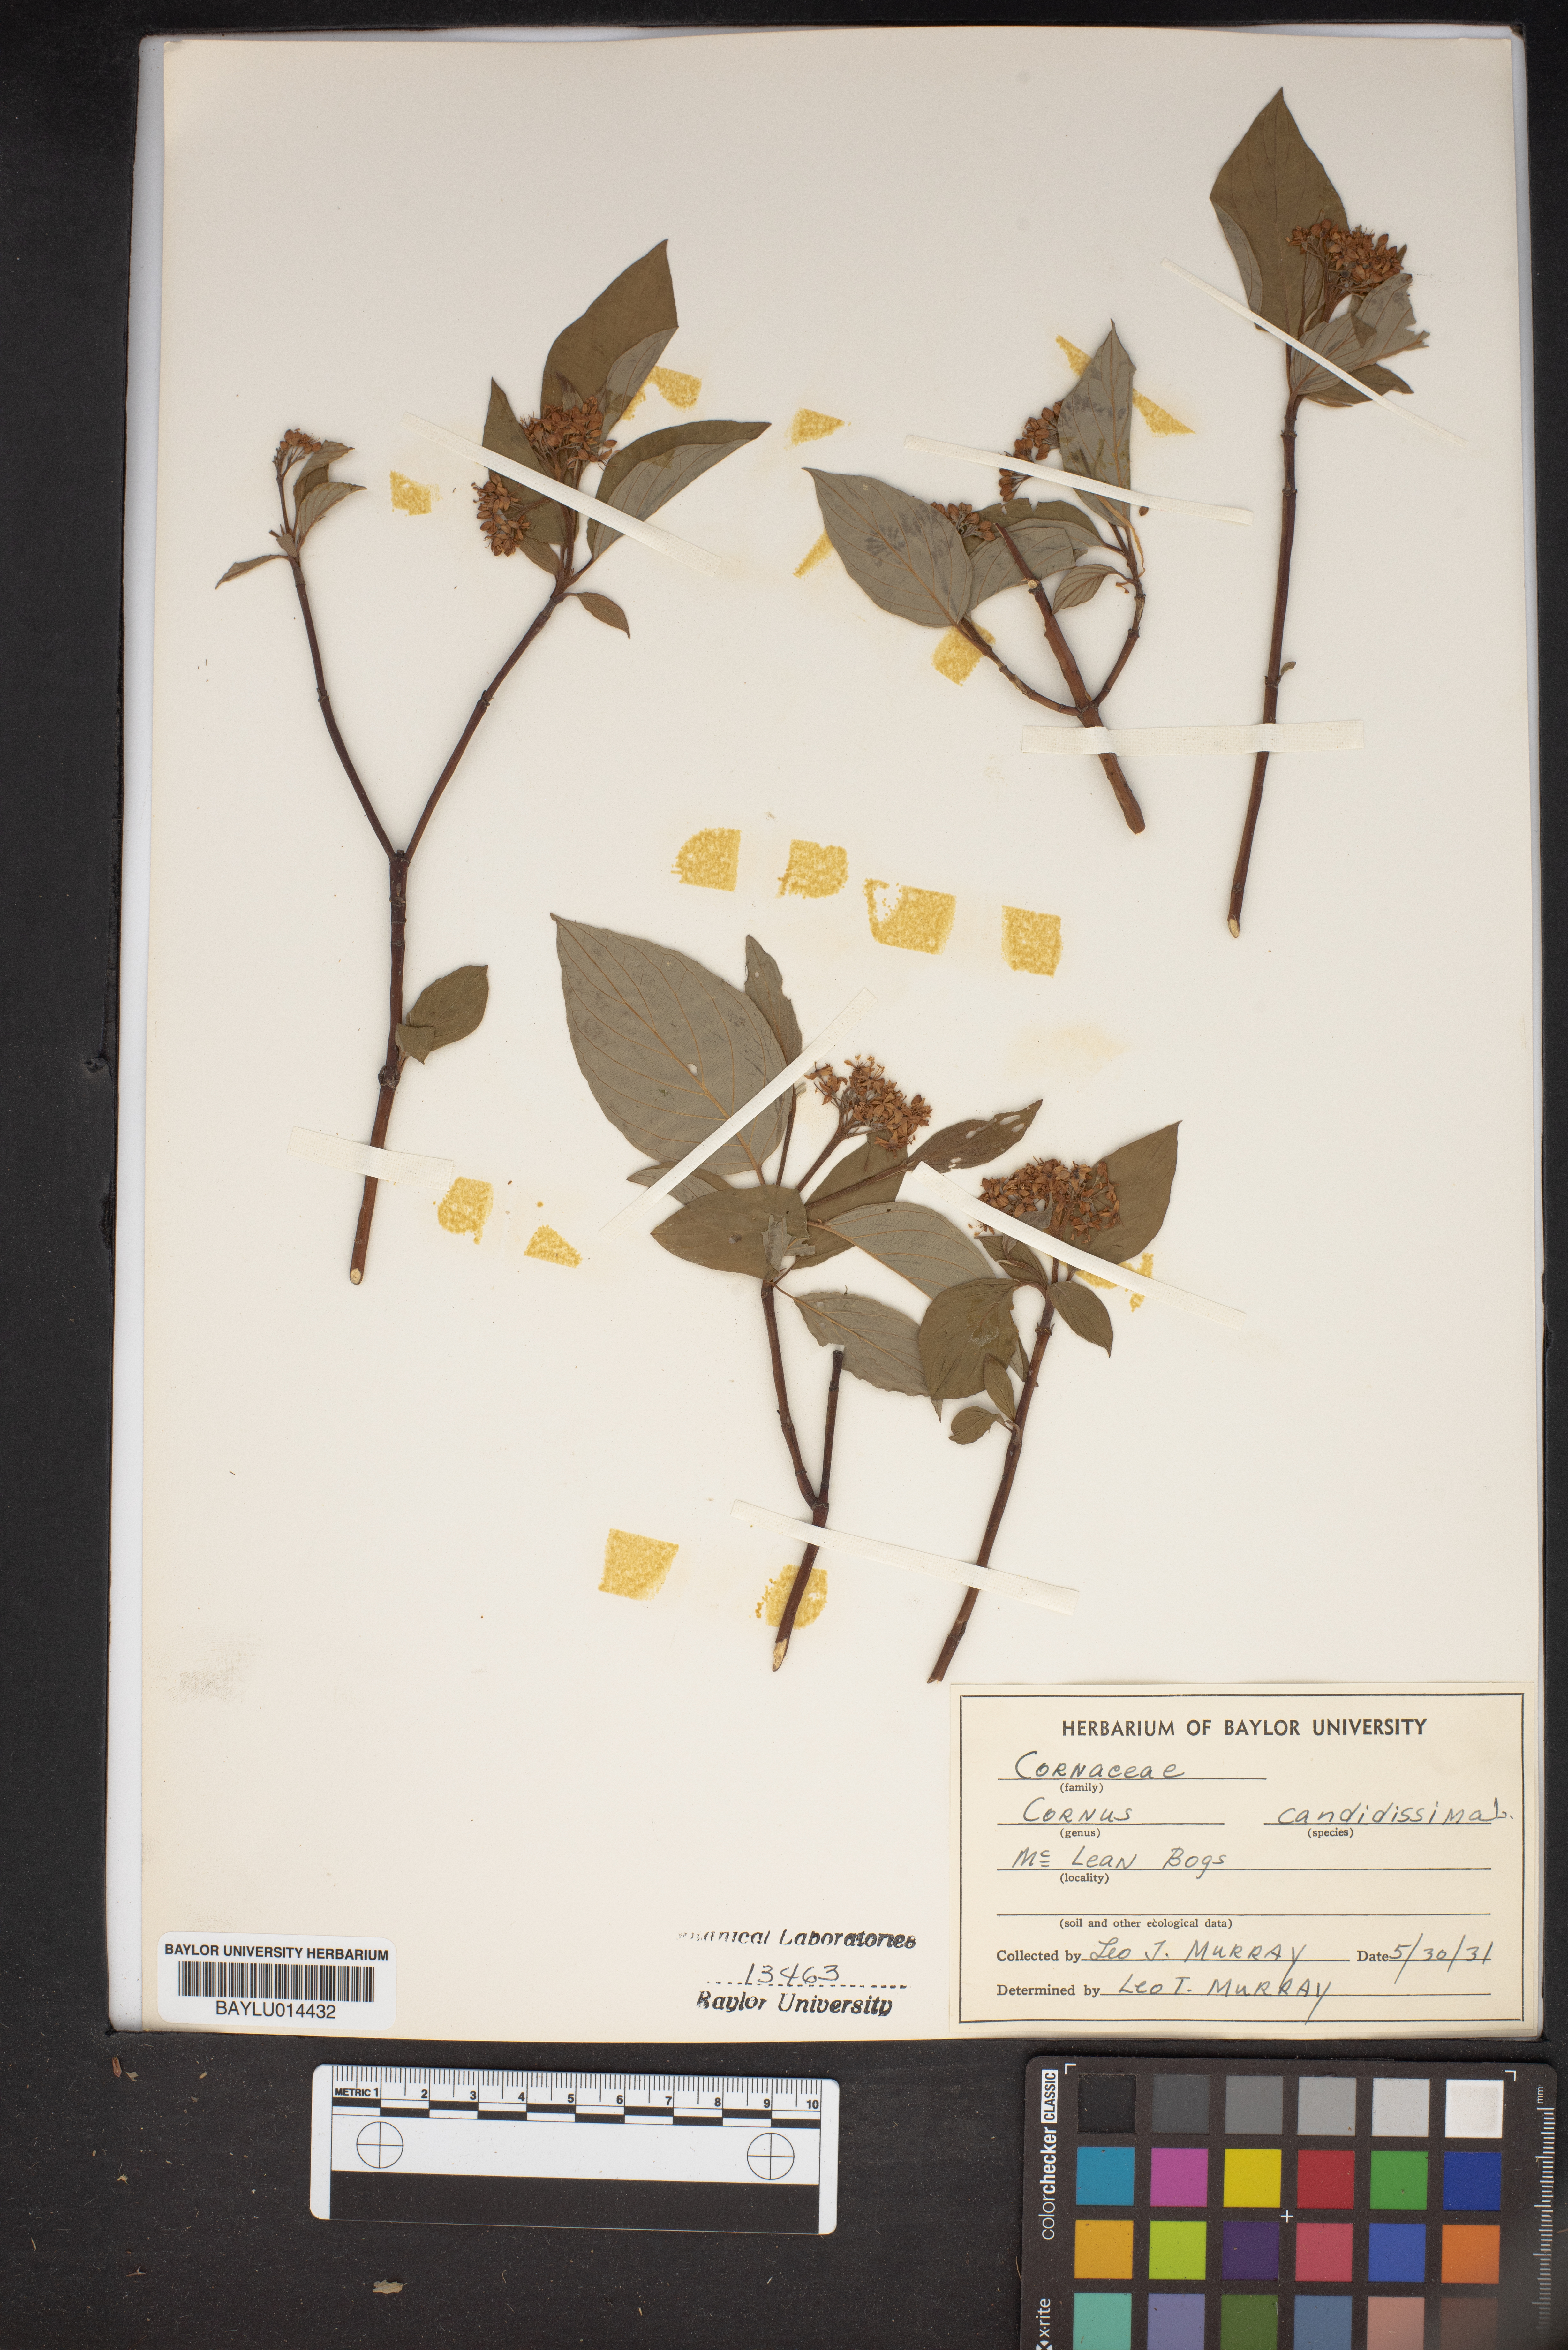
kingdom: Plantae
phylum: Tracheophyta
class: Magnoliopsida
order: Cornales
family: Cornaceae
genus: Cornus
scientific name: Cornus florida
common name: Flowering dogwood
